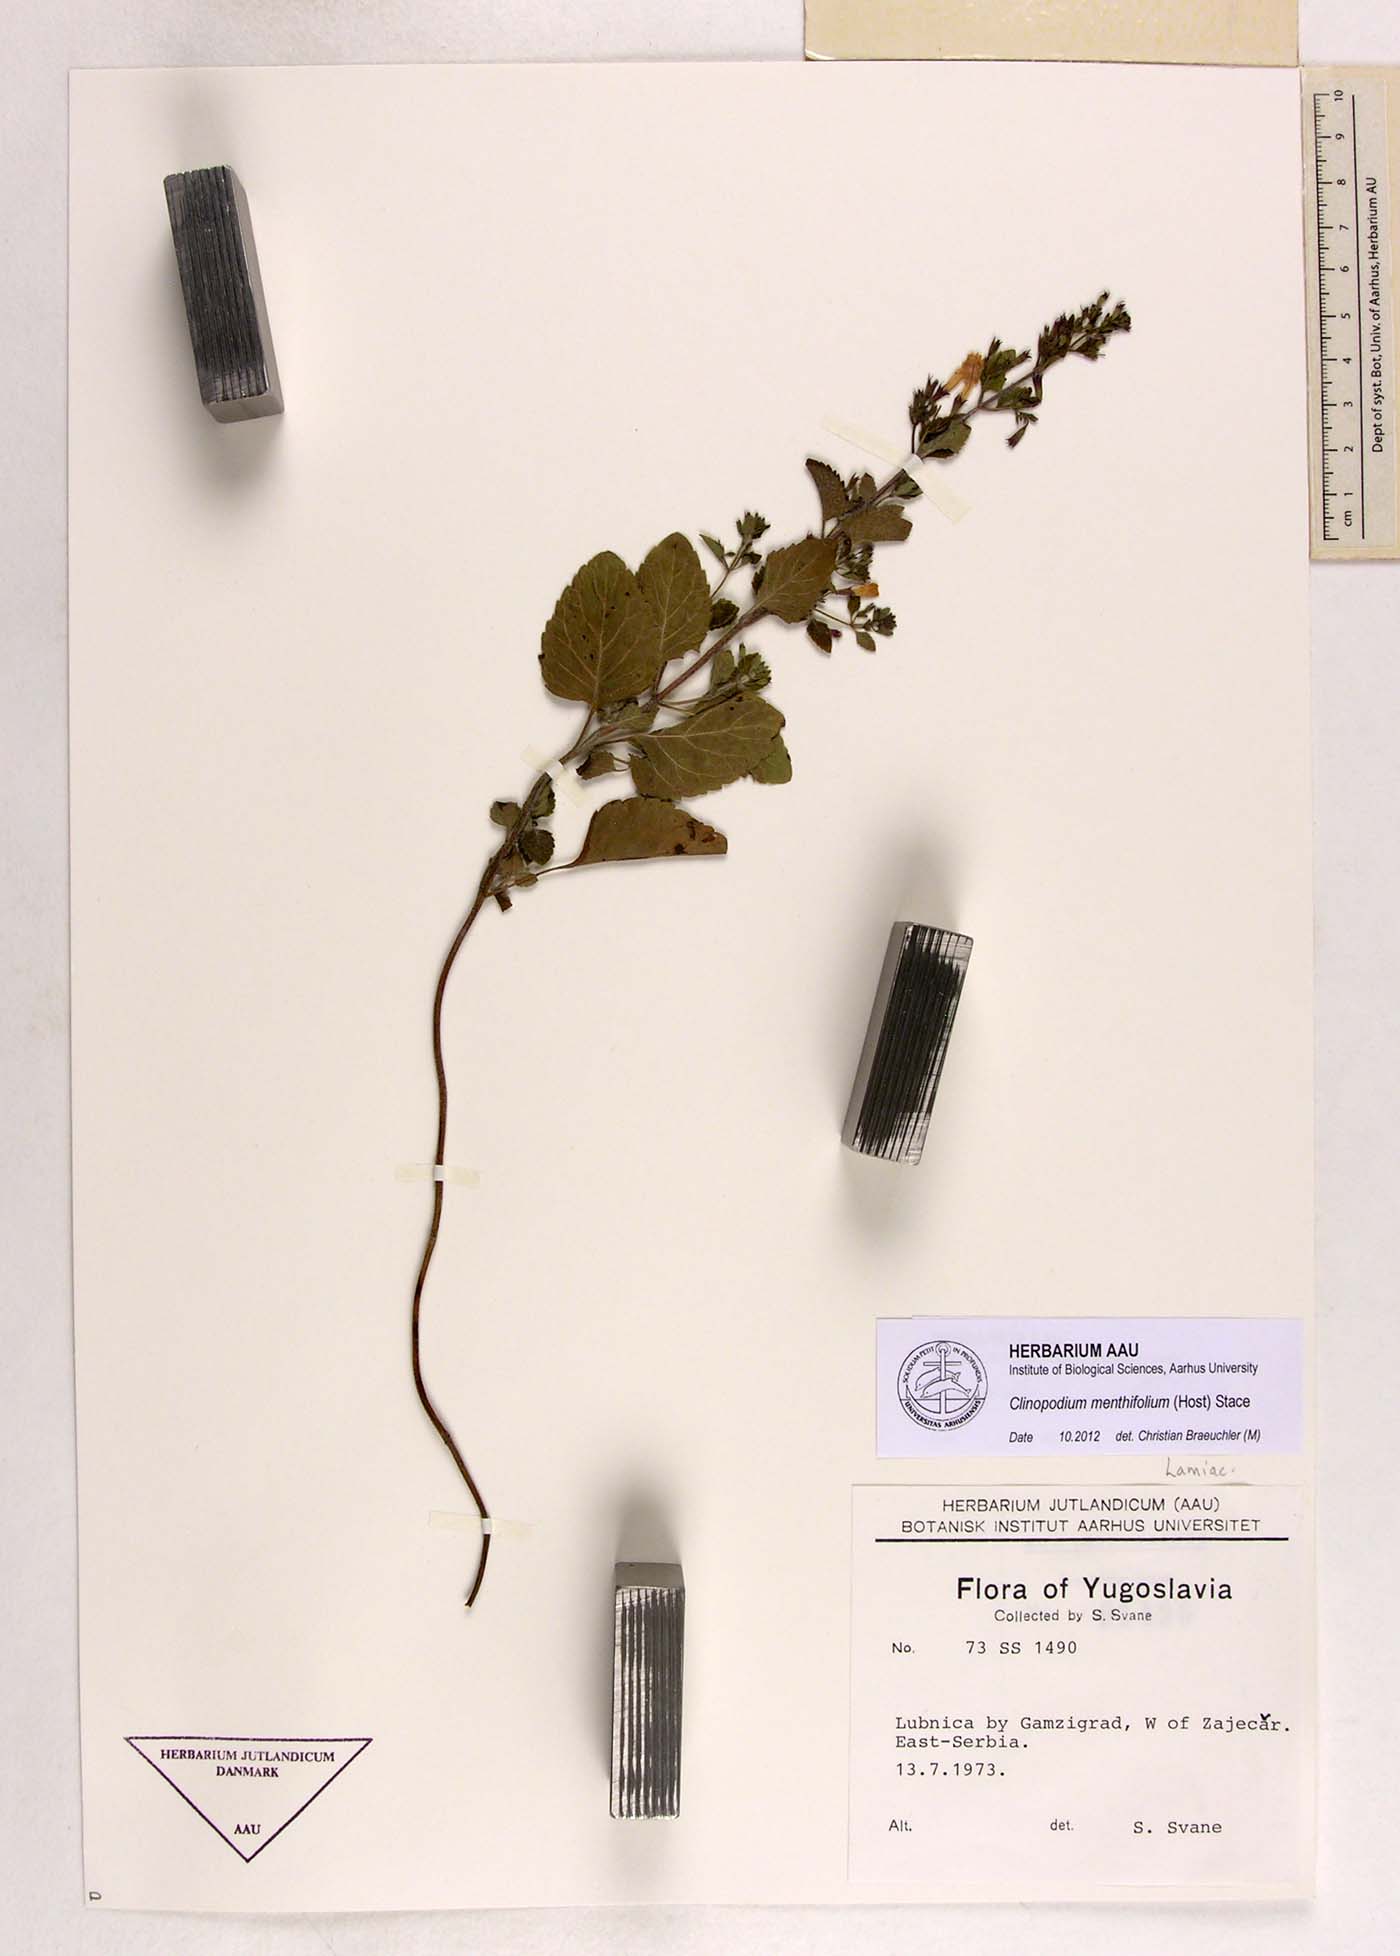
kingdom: Plantae
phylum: Tracheophyta
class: Magnoliopsida
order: Lamiales
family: Lamiaceae
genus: Clinopodium
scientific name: Clinopodium menthifolium
